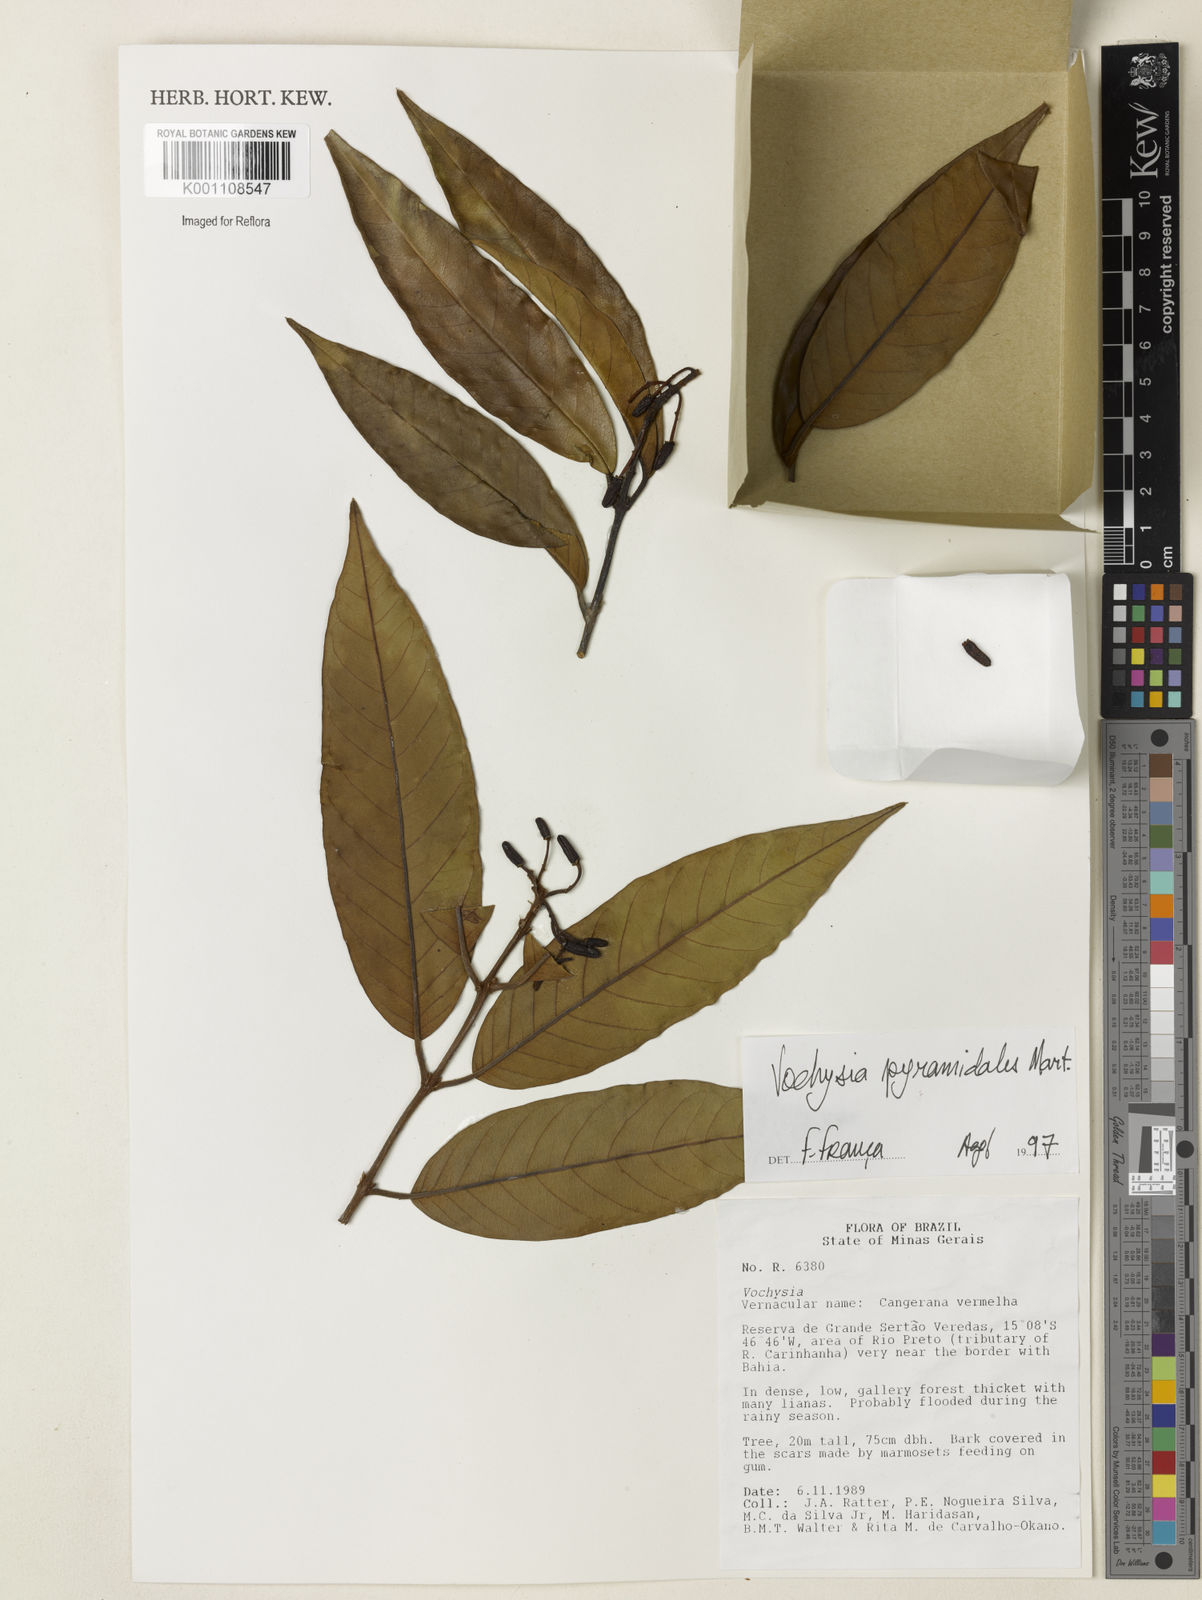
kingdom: Plantae
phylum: Tracheophyta
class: Magnoliopsida
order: Myrtales
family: Vochysiaceae
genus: Vochysia
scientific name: Vochysia pyramidalis
